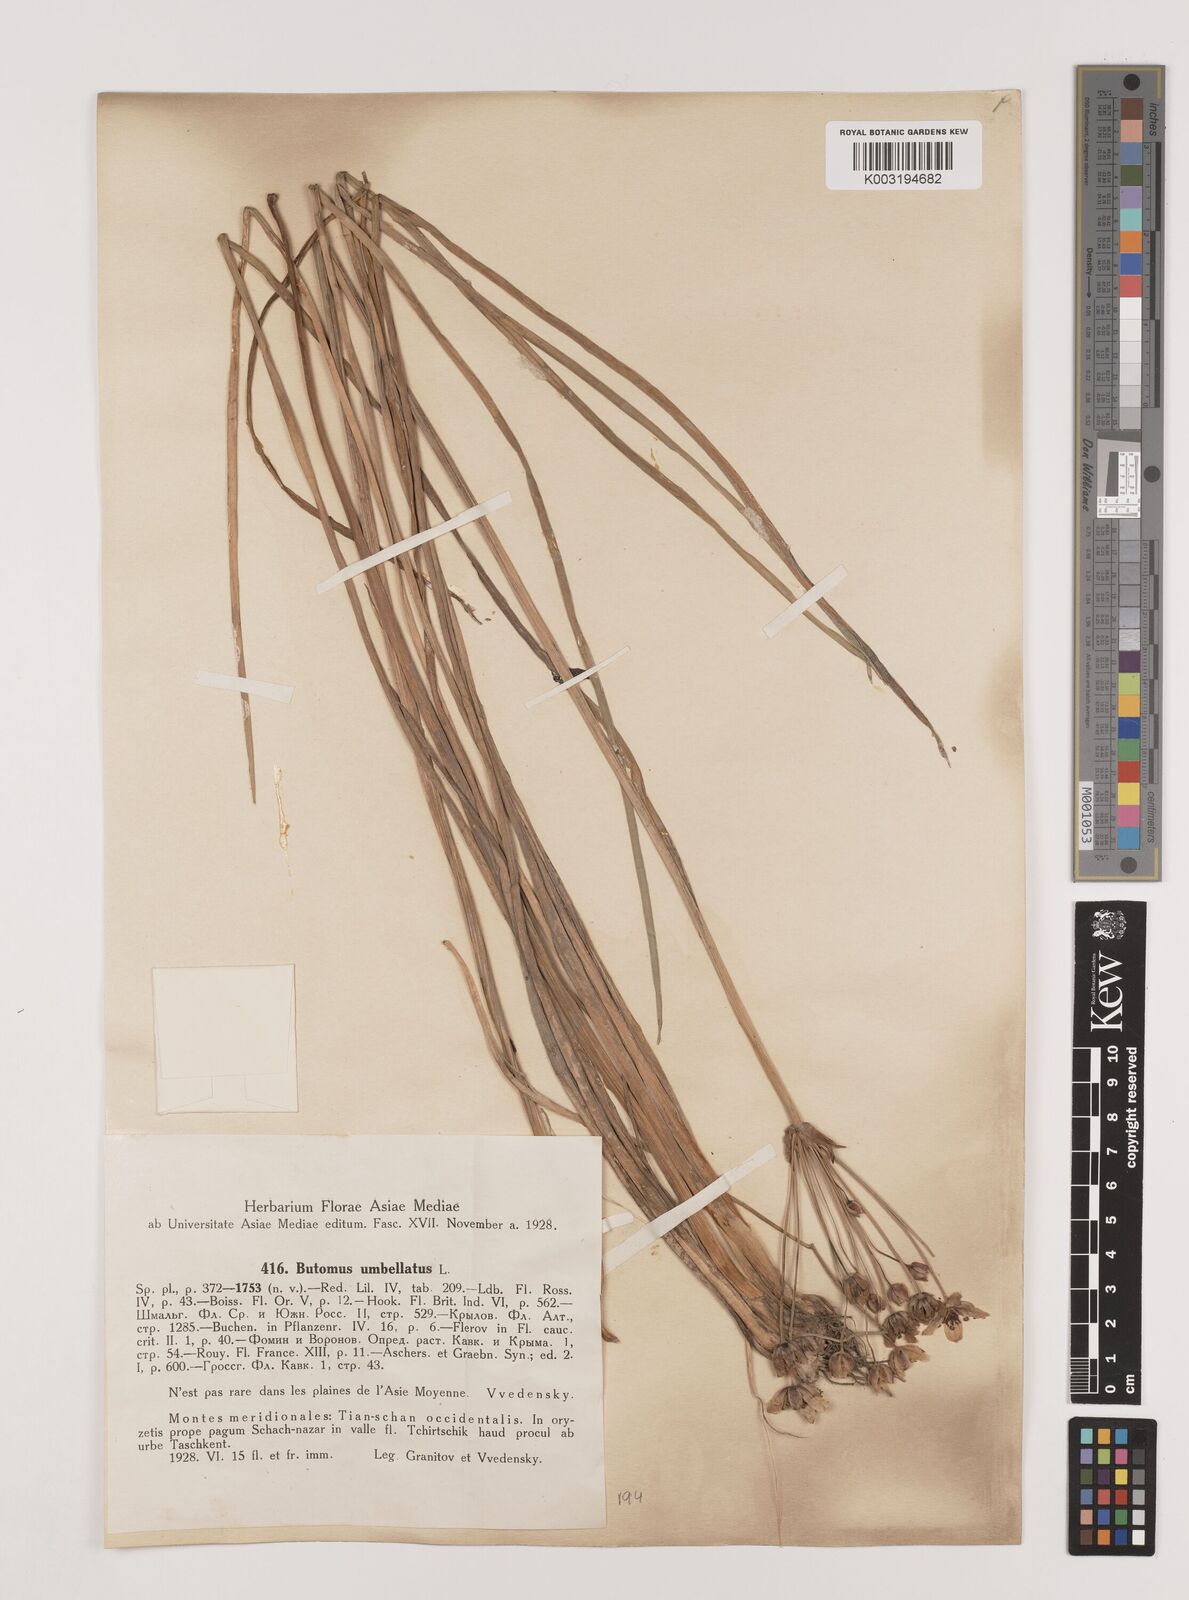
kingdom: Plantae
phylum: Tracheophyta
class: Liliopsida
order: Alismatales
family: Butomaceae
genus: Butomus
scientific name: Butomus umbellatus
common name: Flowering-rush
